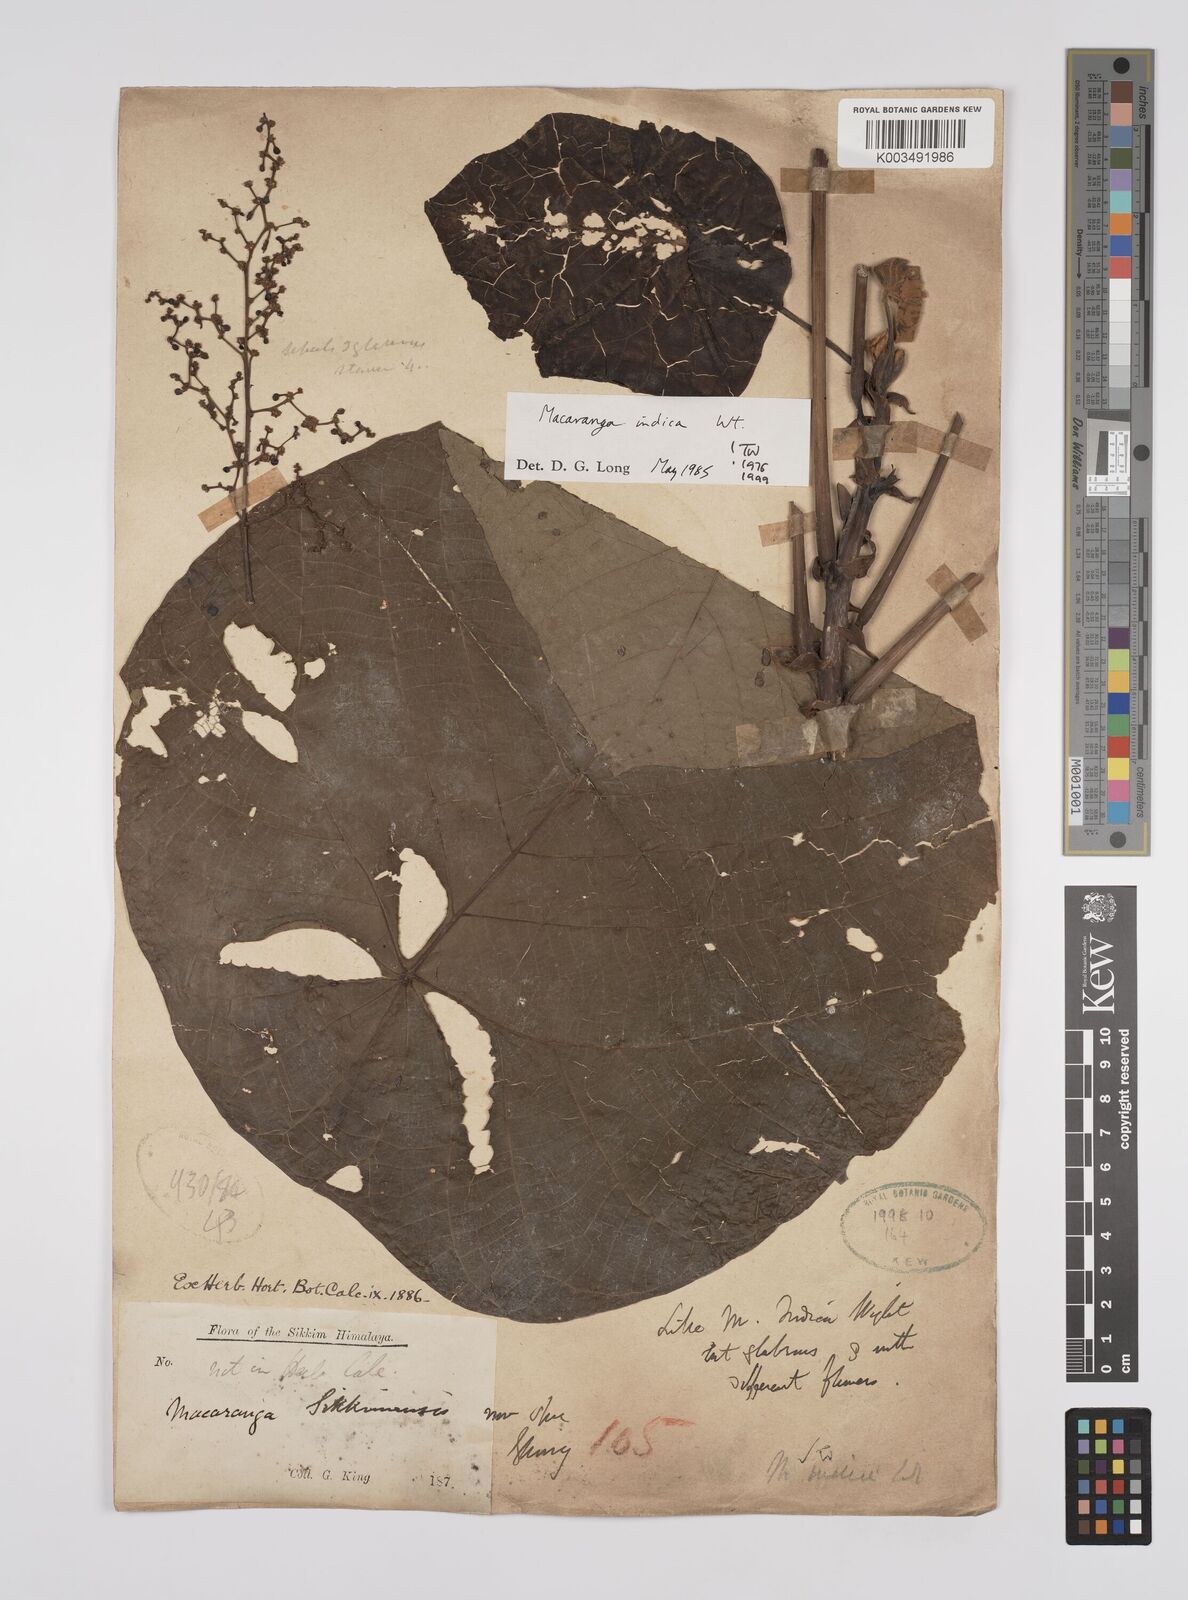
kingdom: Plantae
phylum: Tracheophyta
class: Magnoliopsida
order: Malpighiales
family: Euphorbiaceae
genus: Macaranga
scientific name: Macaranga indica
